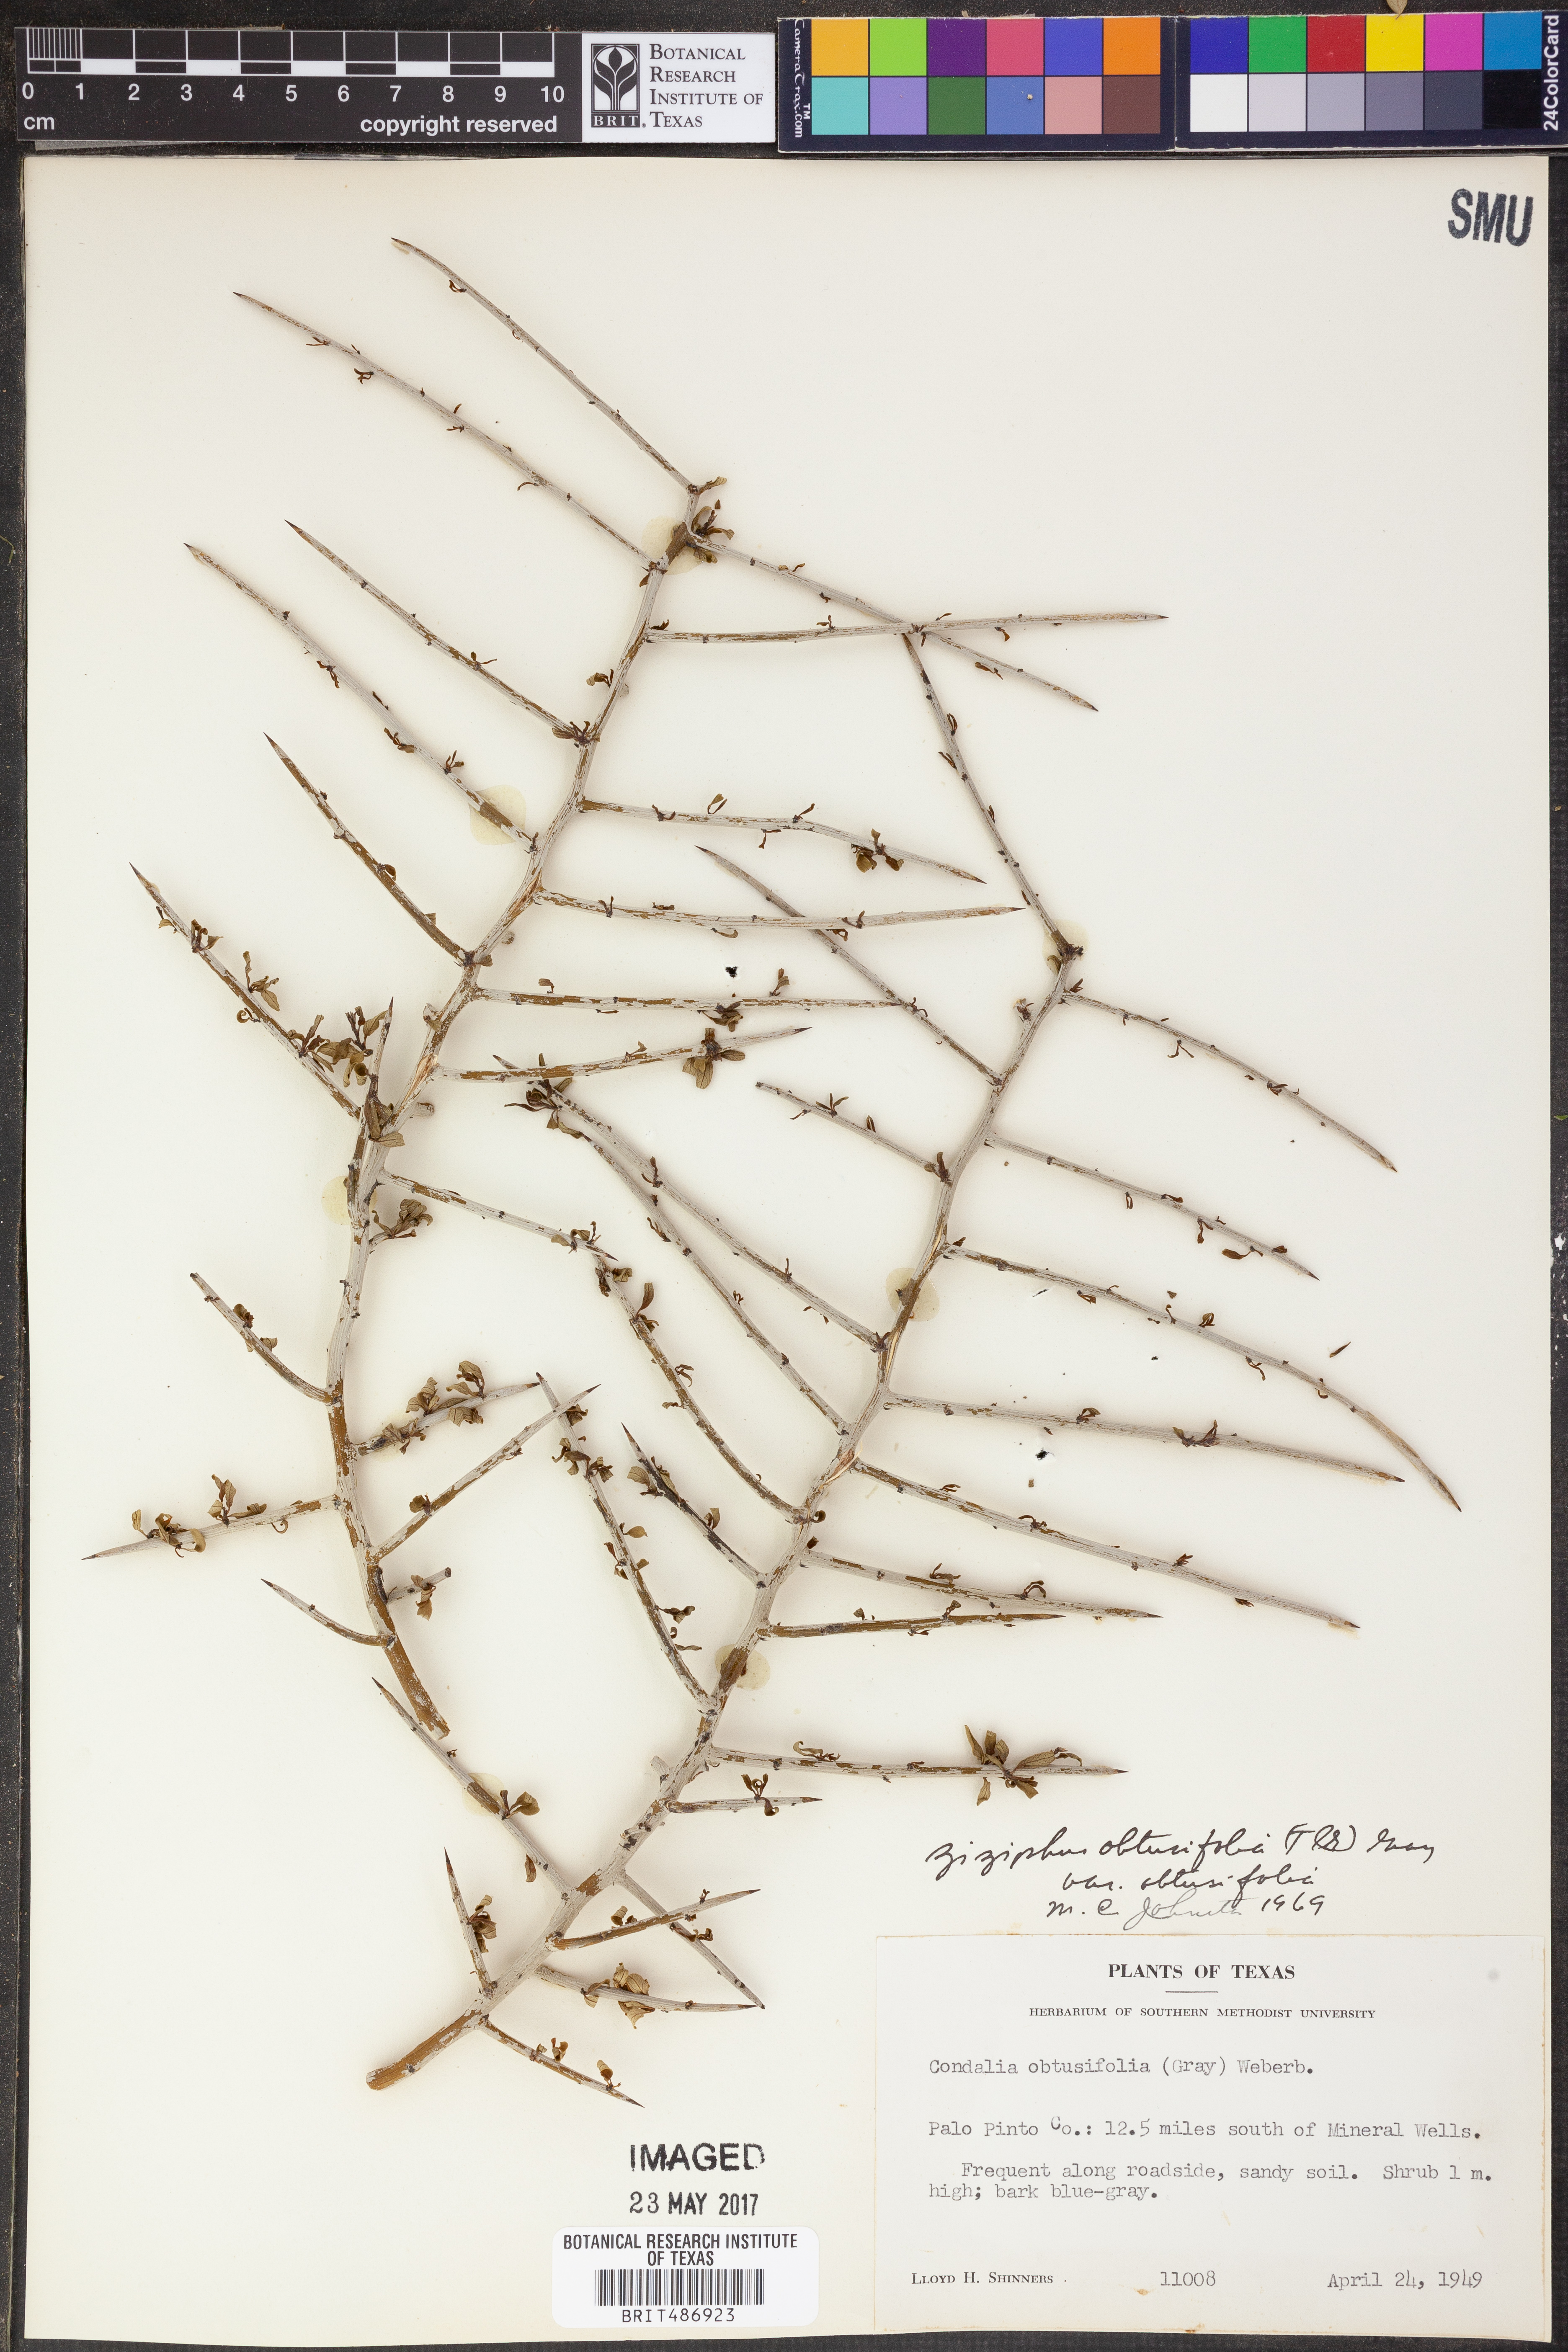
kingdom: Plantae
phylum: Tracheophyta
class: Magnoliopsida
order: Rosales
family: Rhamnaceae
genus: Sarcomphalus
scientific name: Sarcomphalus obtusifolius
